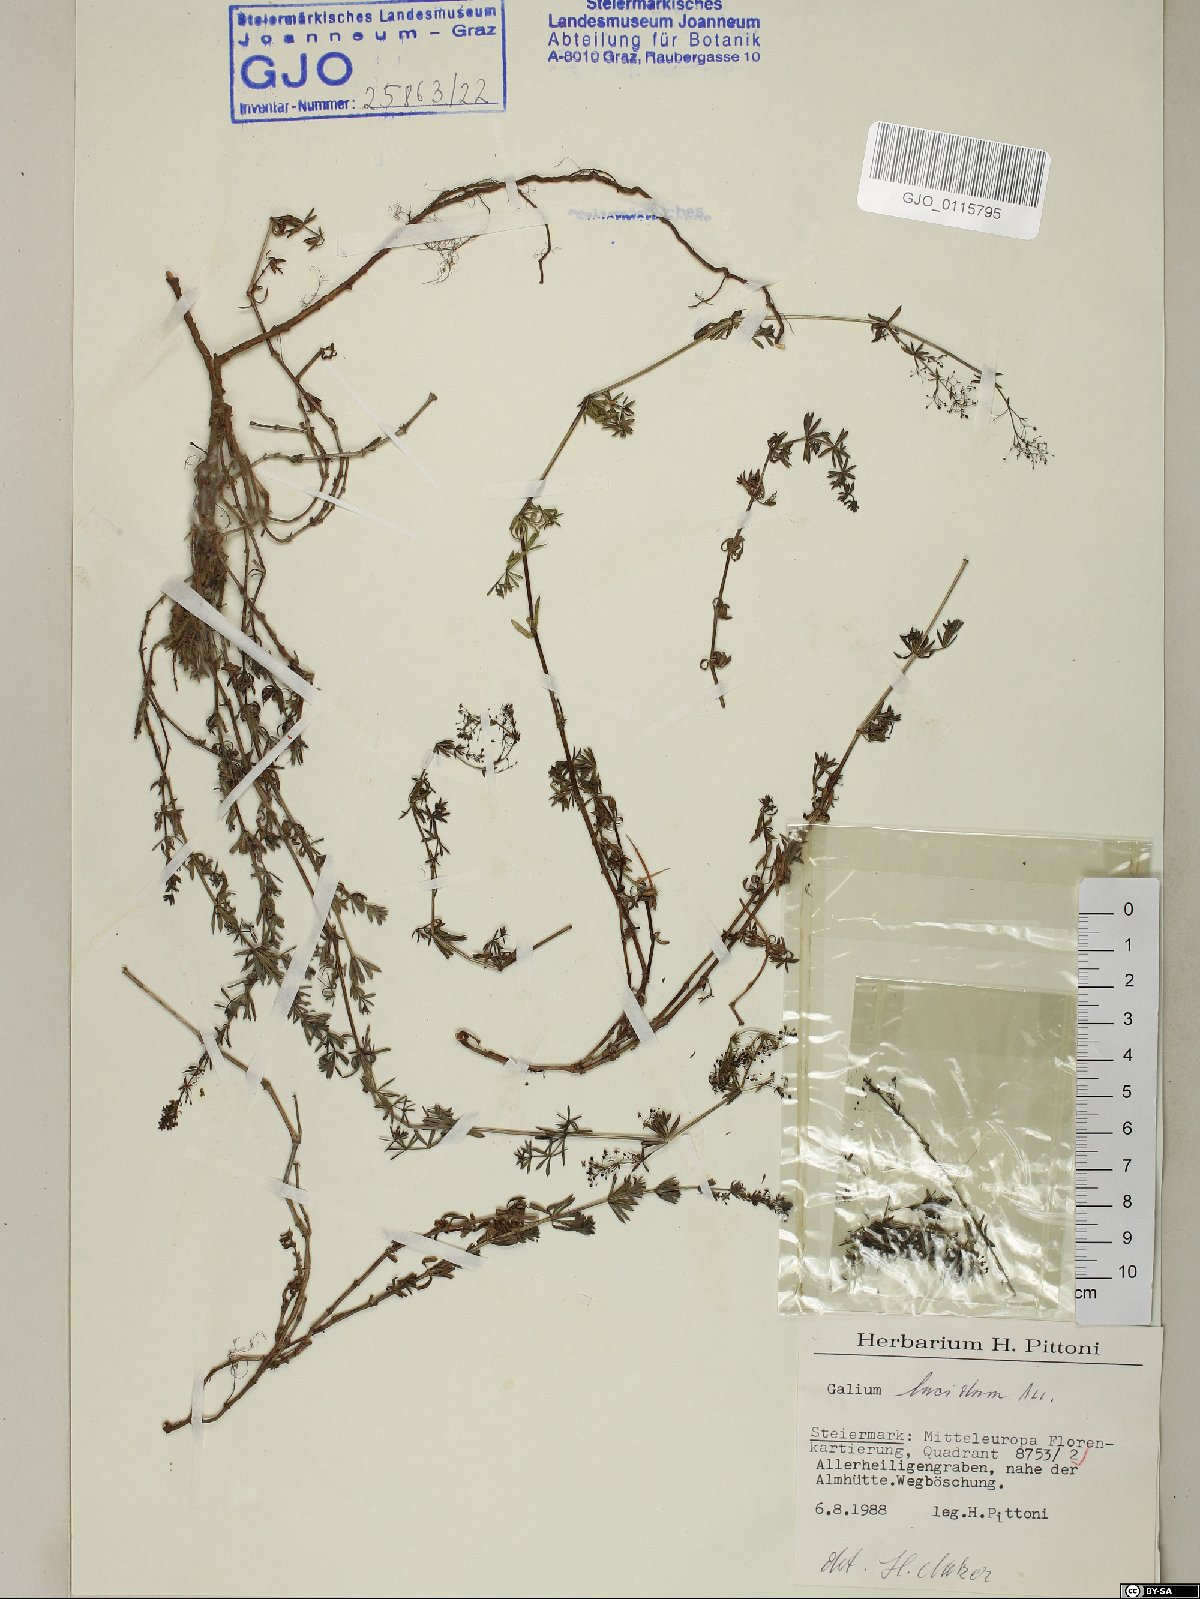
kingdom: Plantae
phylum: Tracheophyta
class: Magnoliopsida
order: Gentianales
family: Rubiaceae
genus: Galium
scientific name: Galium lucidum
